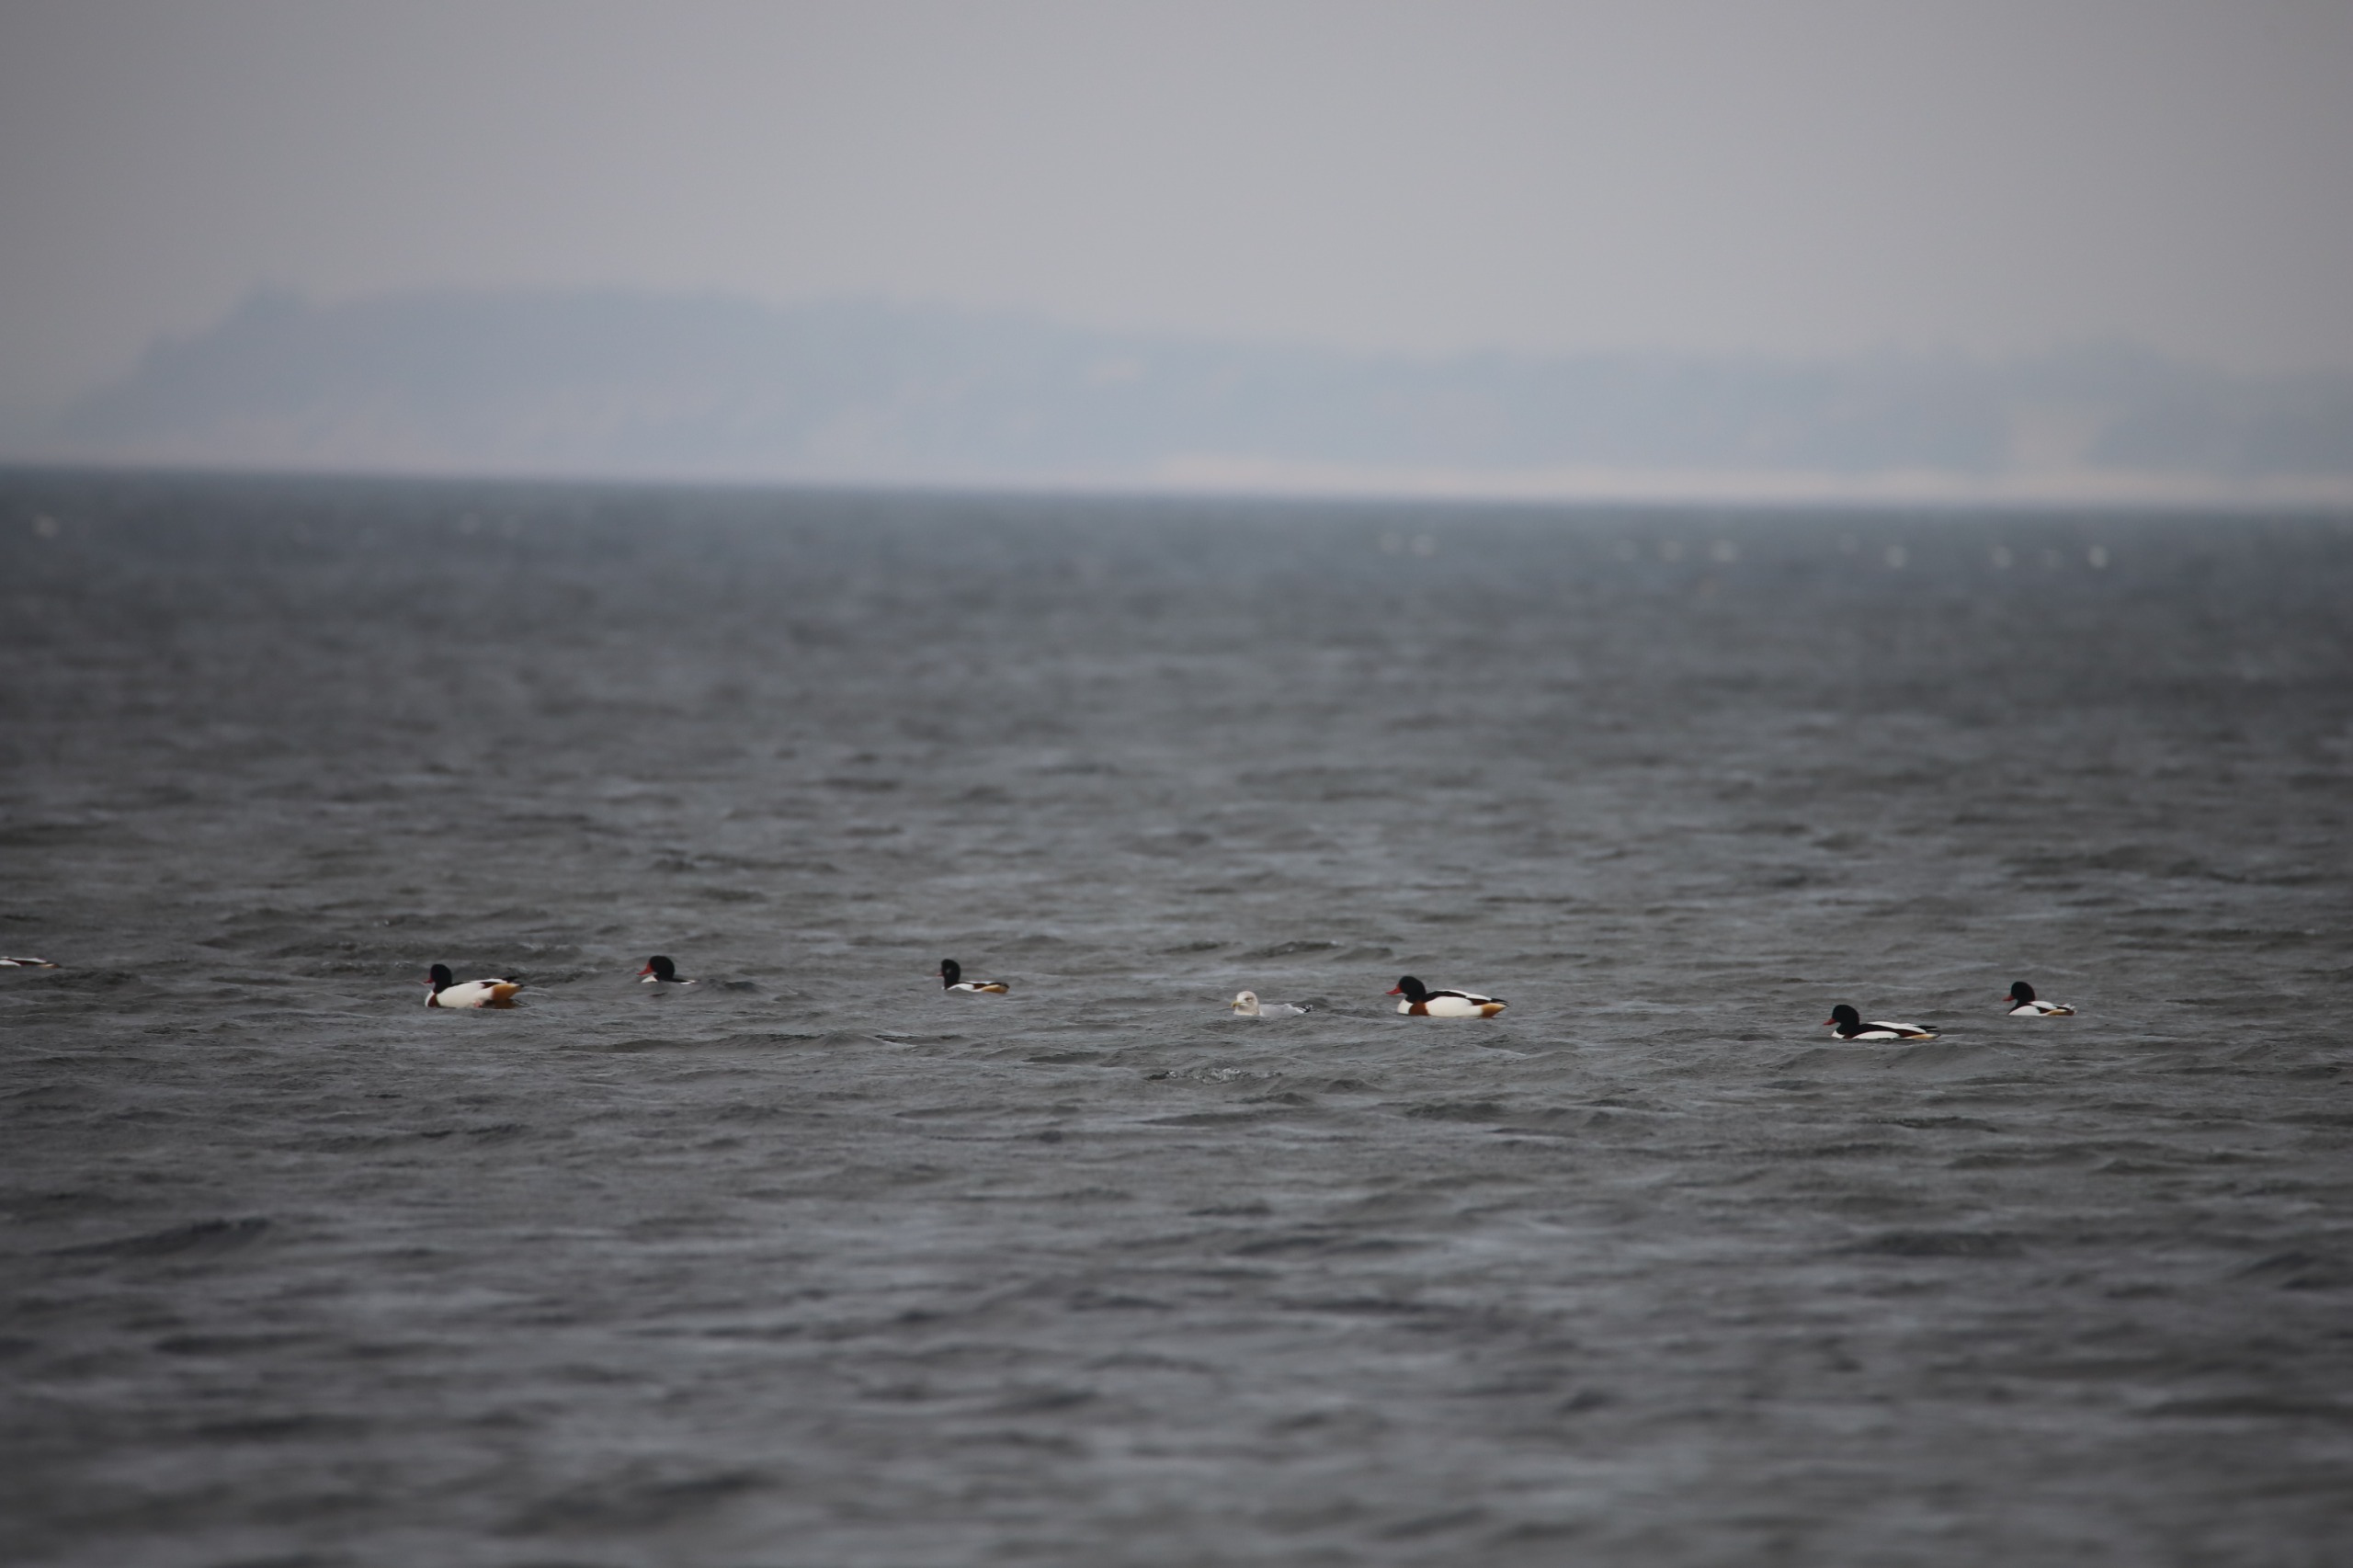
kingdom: Animalia
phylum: Chordata
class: Aves
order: Anseriformes
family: Anatidae
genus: Tadorna
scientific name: Tadorna tadorna
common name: Gravand
